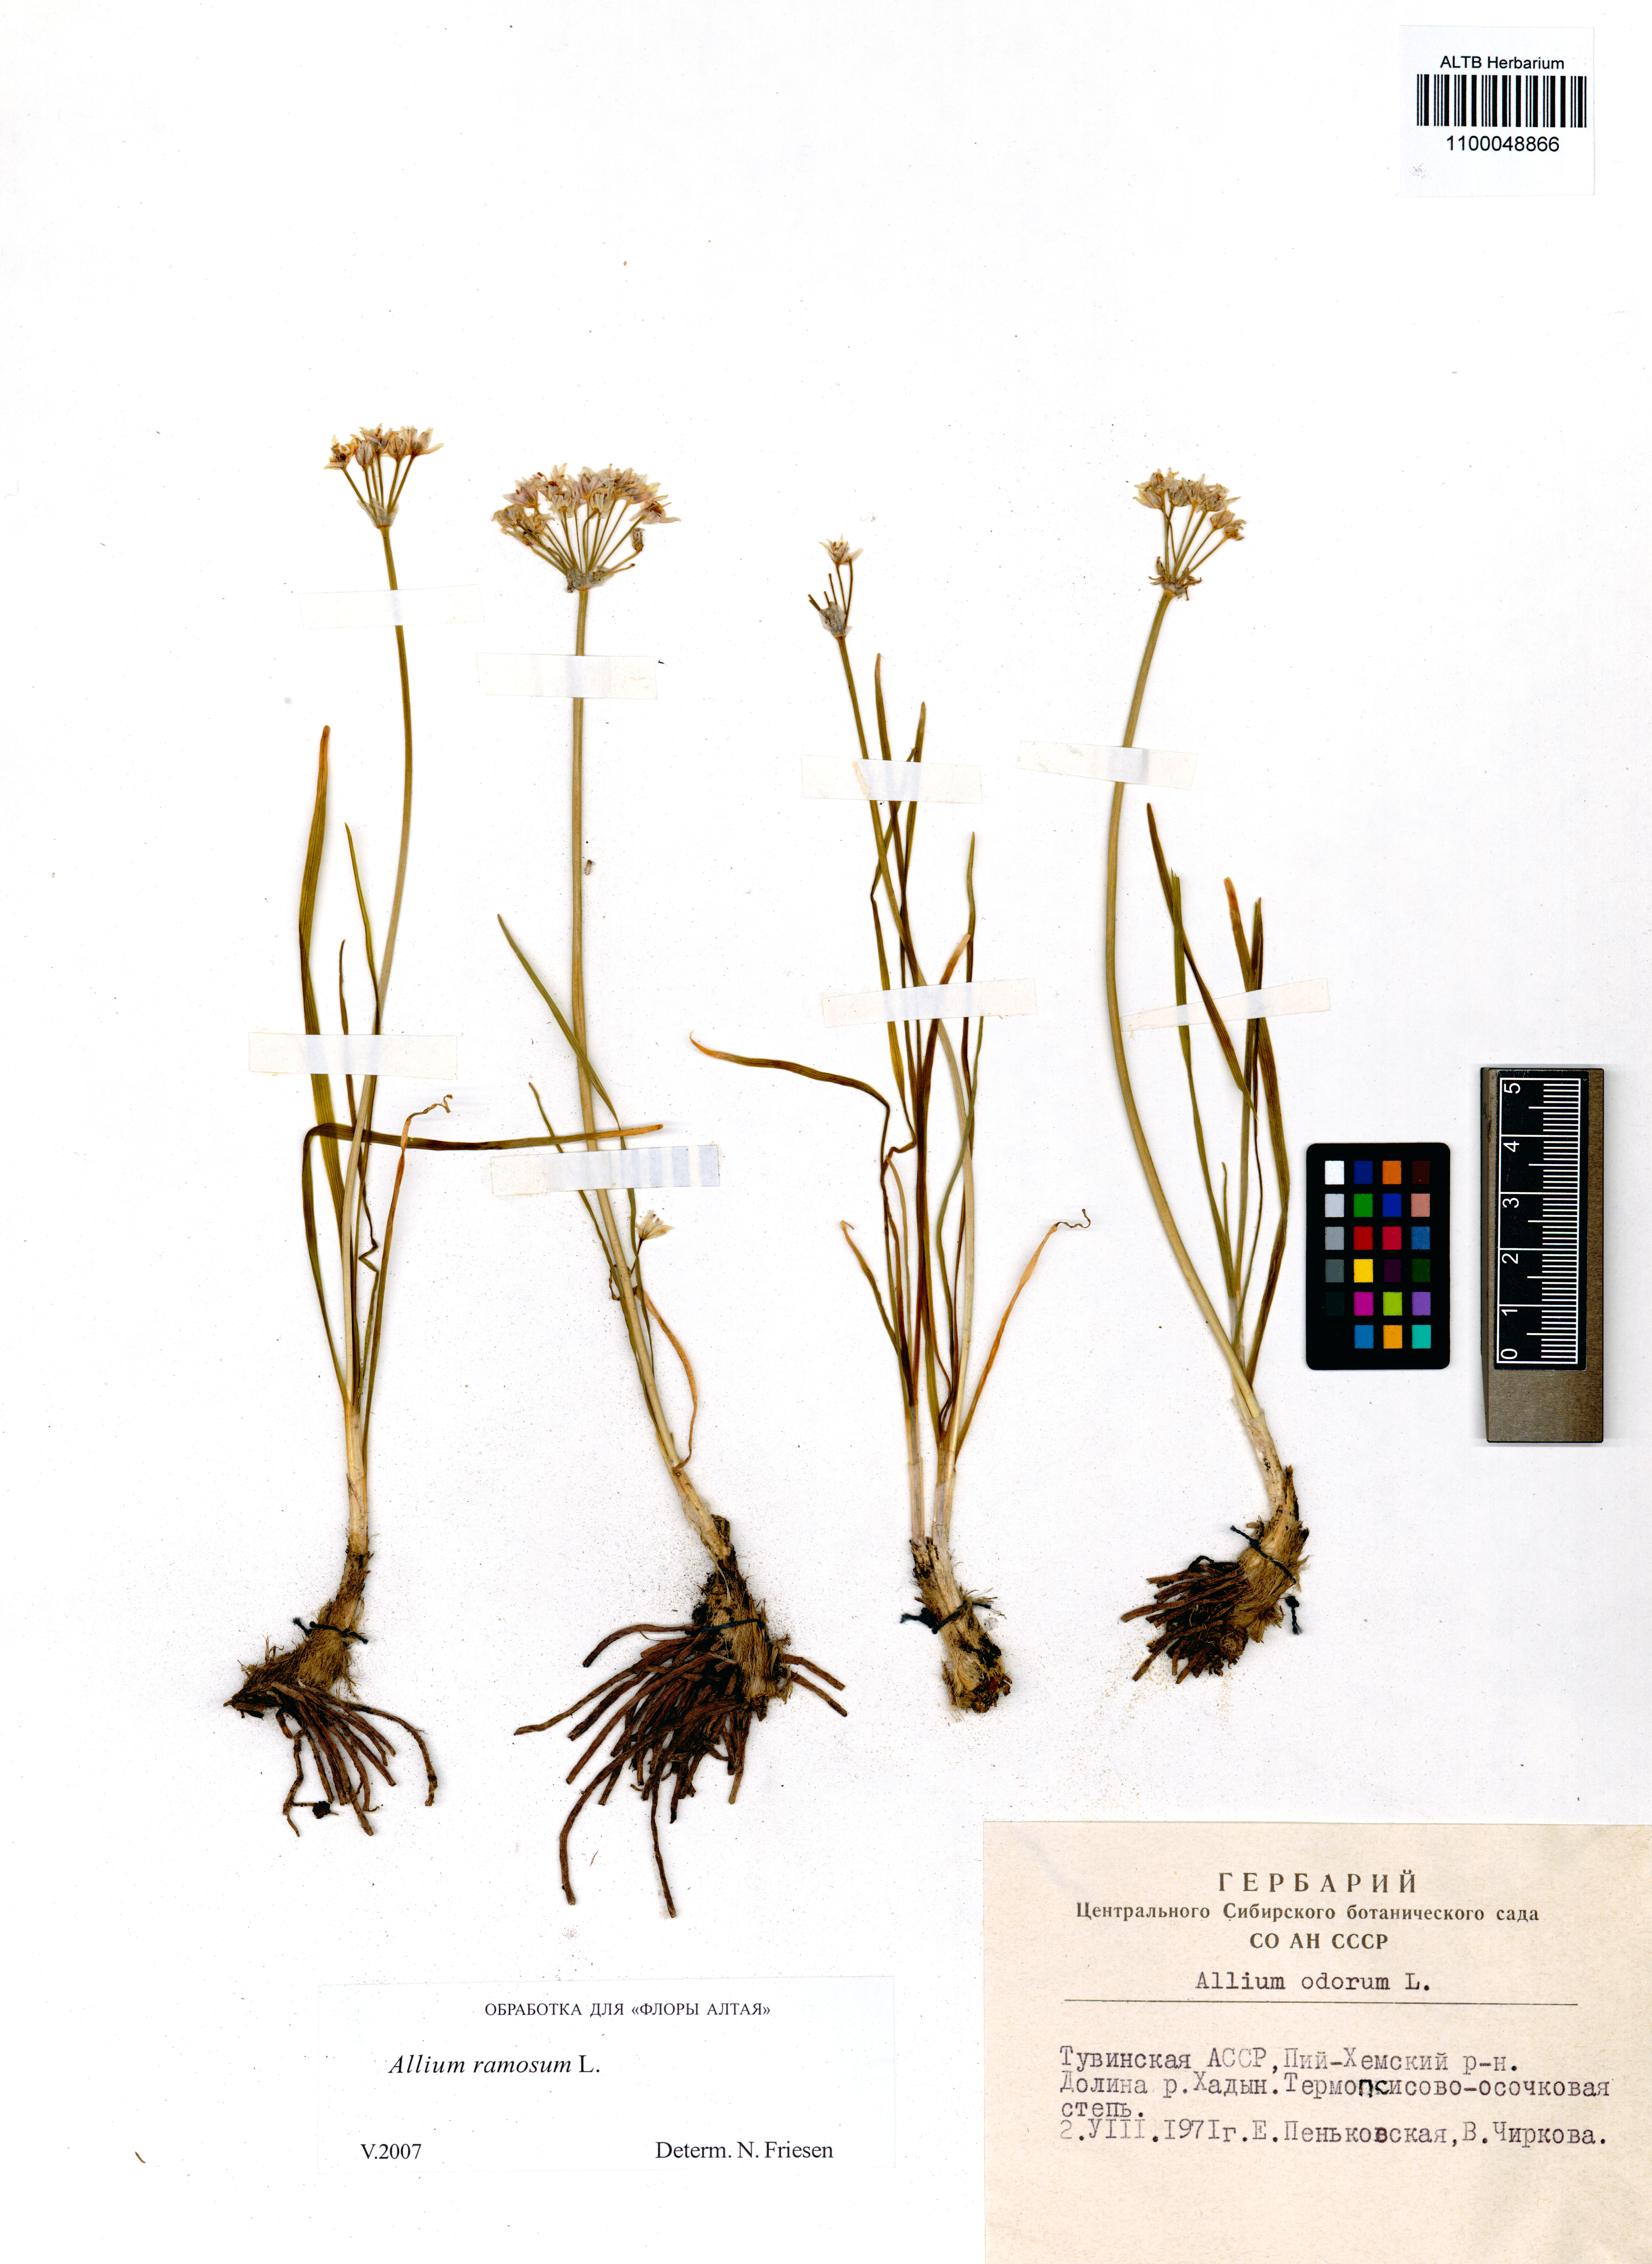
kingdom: Plantae
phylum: Tracheophyta
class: Liliopsida
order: Asparagales
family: Amaryllidaceae
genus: Allium
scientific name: Allium ramosum
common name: Fragrant garlic
